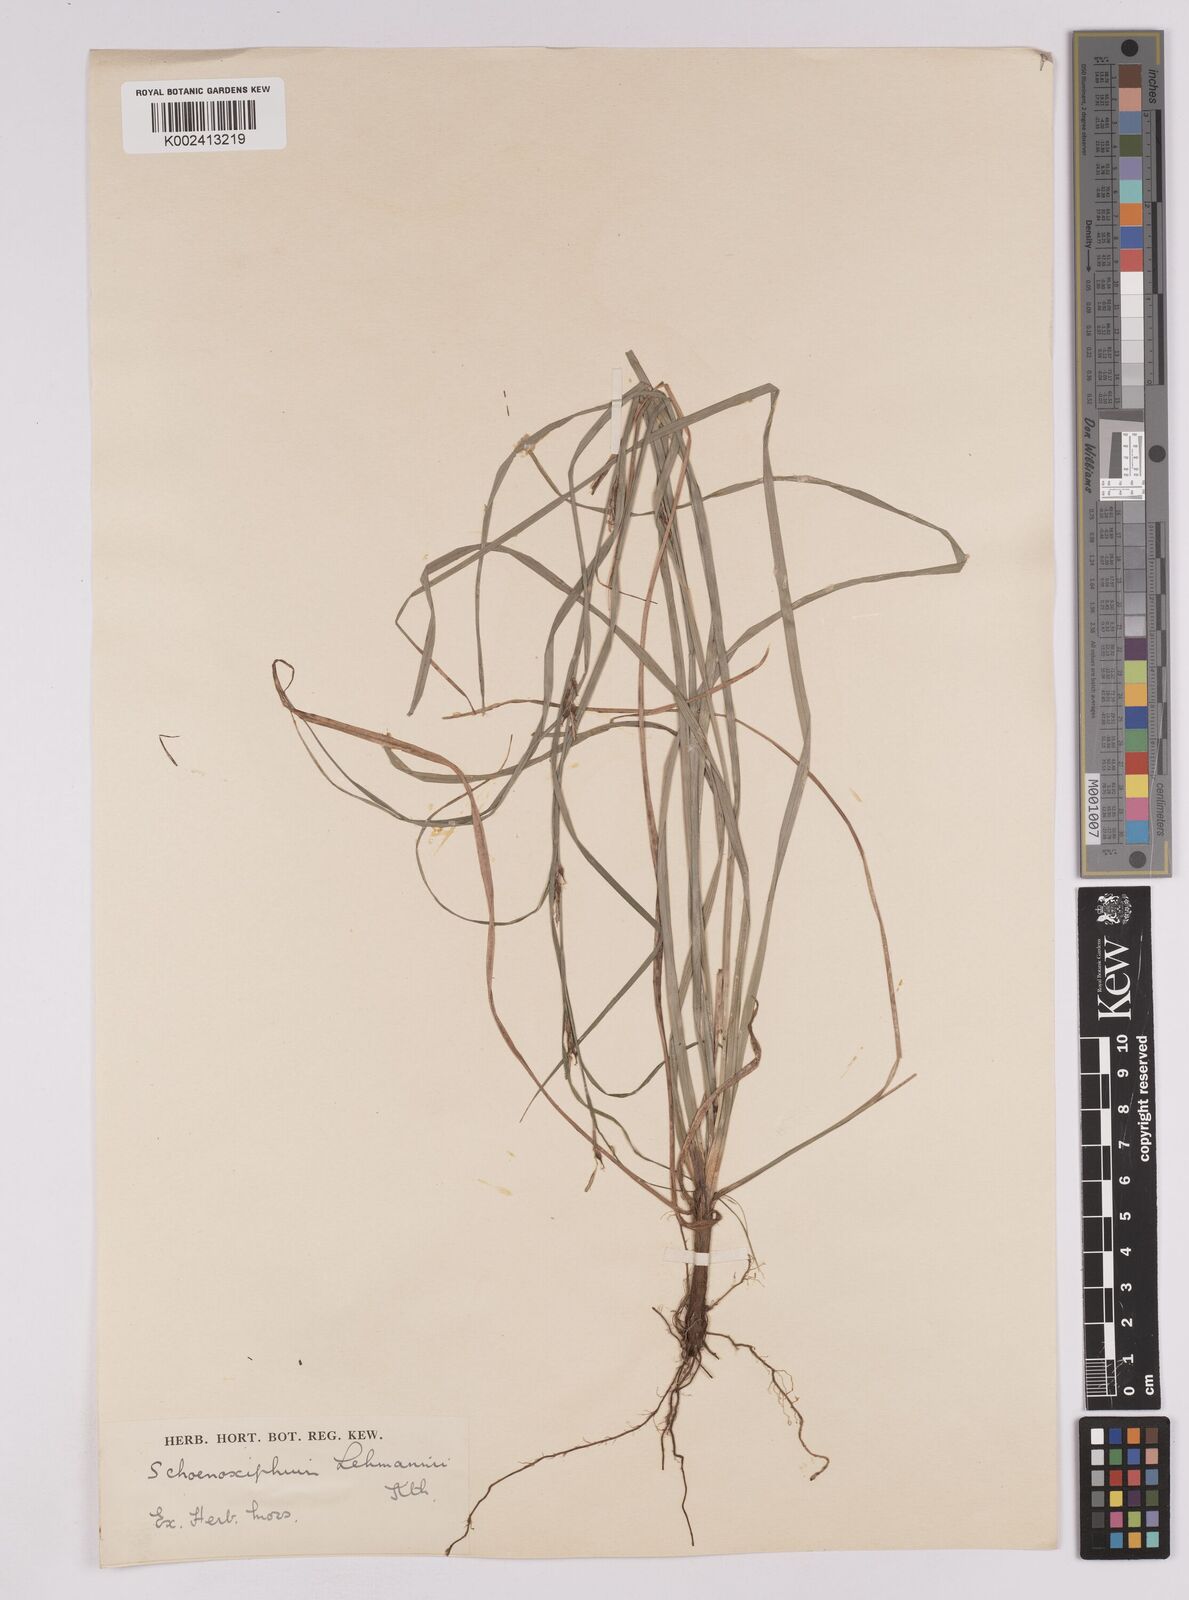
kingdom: Plantae
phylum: Tracheophyta
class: Liliopsida
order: Poales
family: Cyperaceae
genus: Carex
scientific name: Carex uhligii
